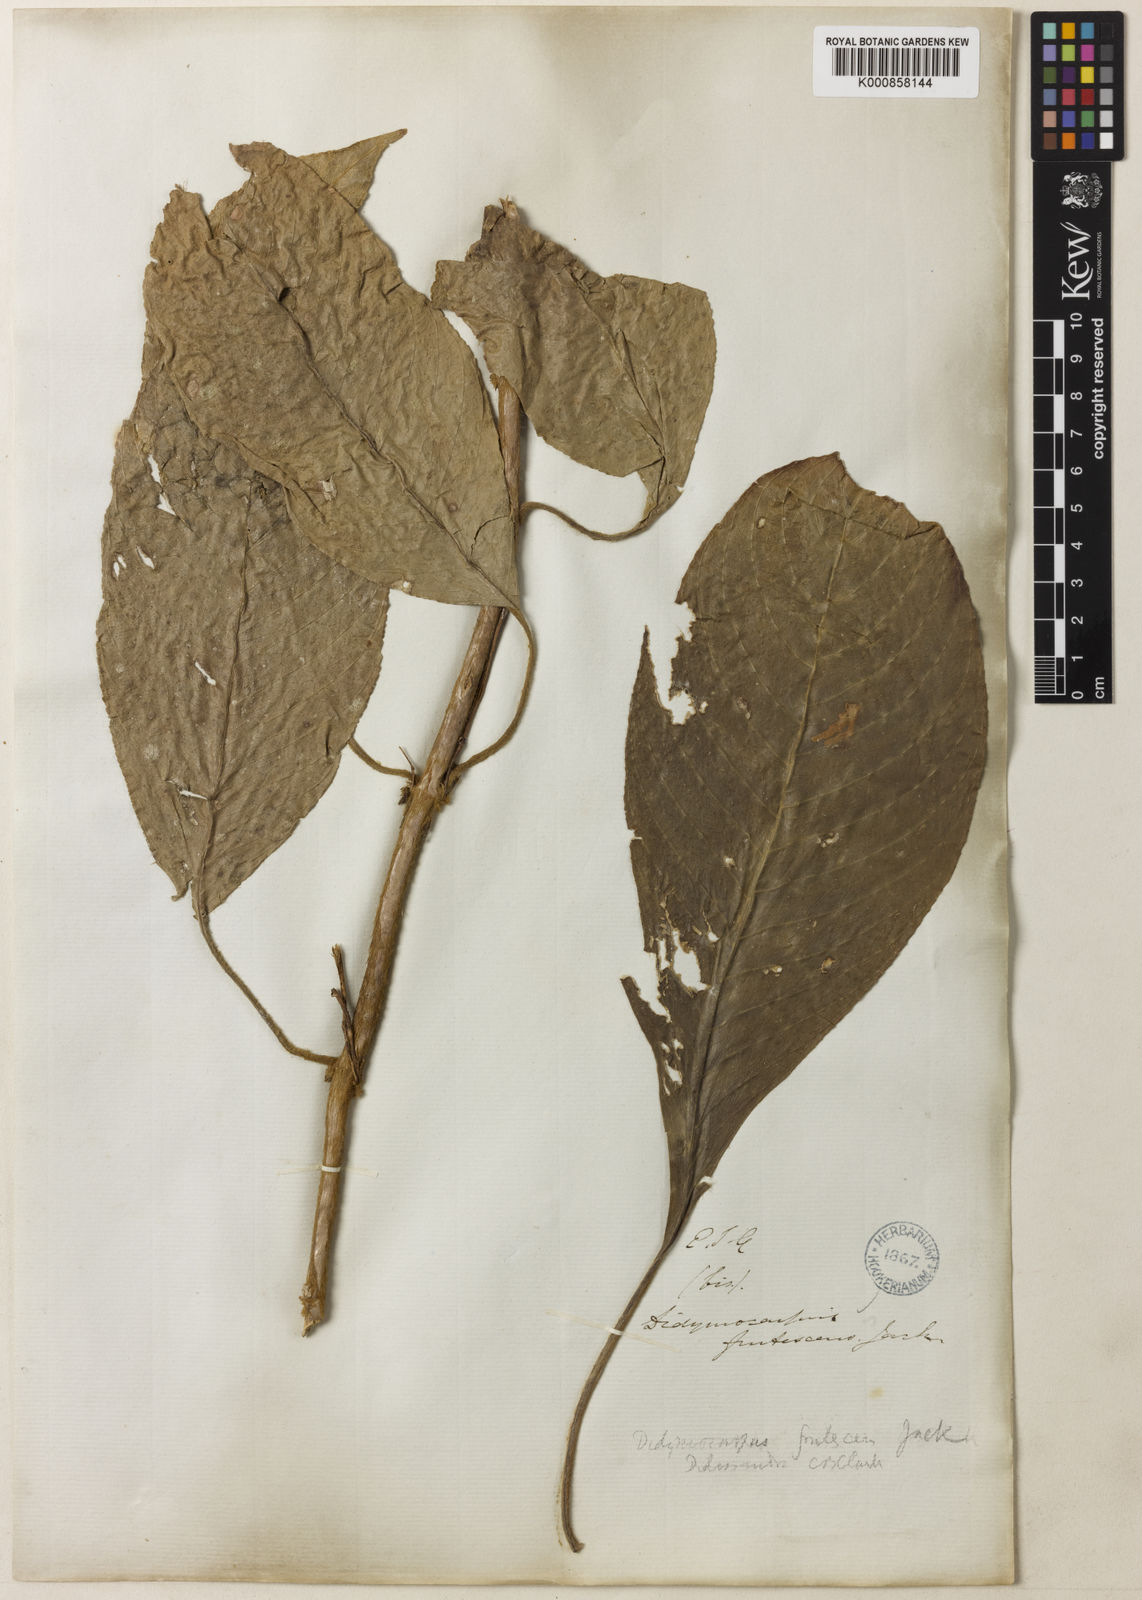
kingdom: Plantae
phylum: Tracheophyta
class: Magnoliopsida
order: Lamiales
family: Gesneriaceae
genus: Didissandra
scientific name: Didissandra frutescens
